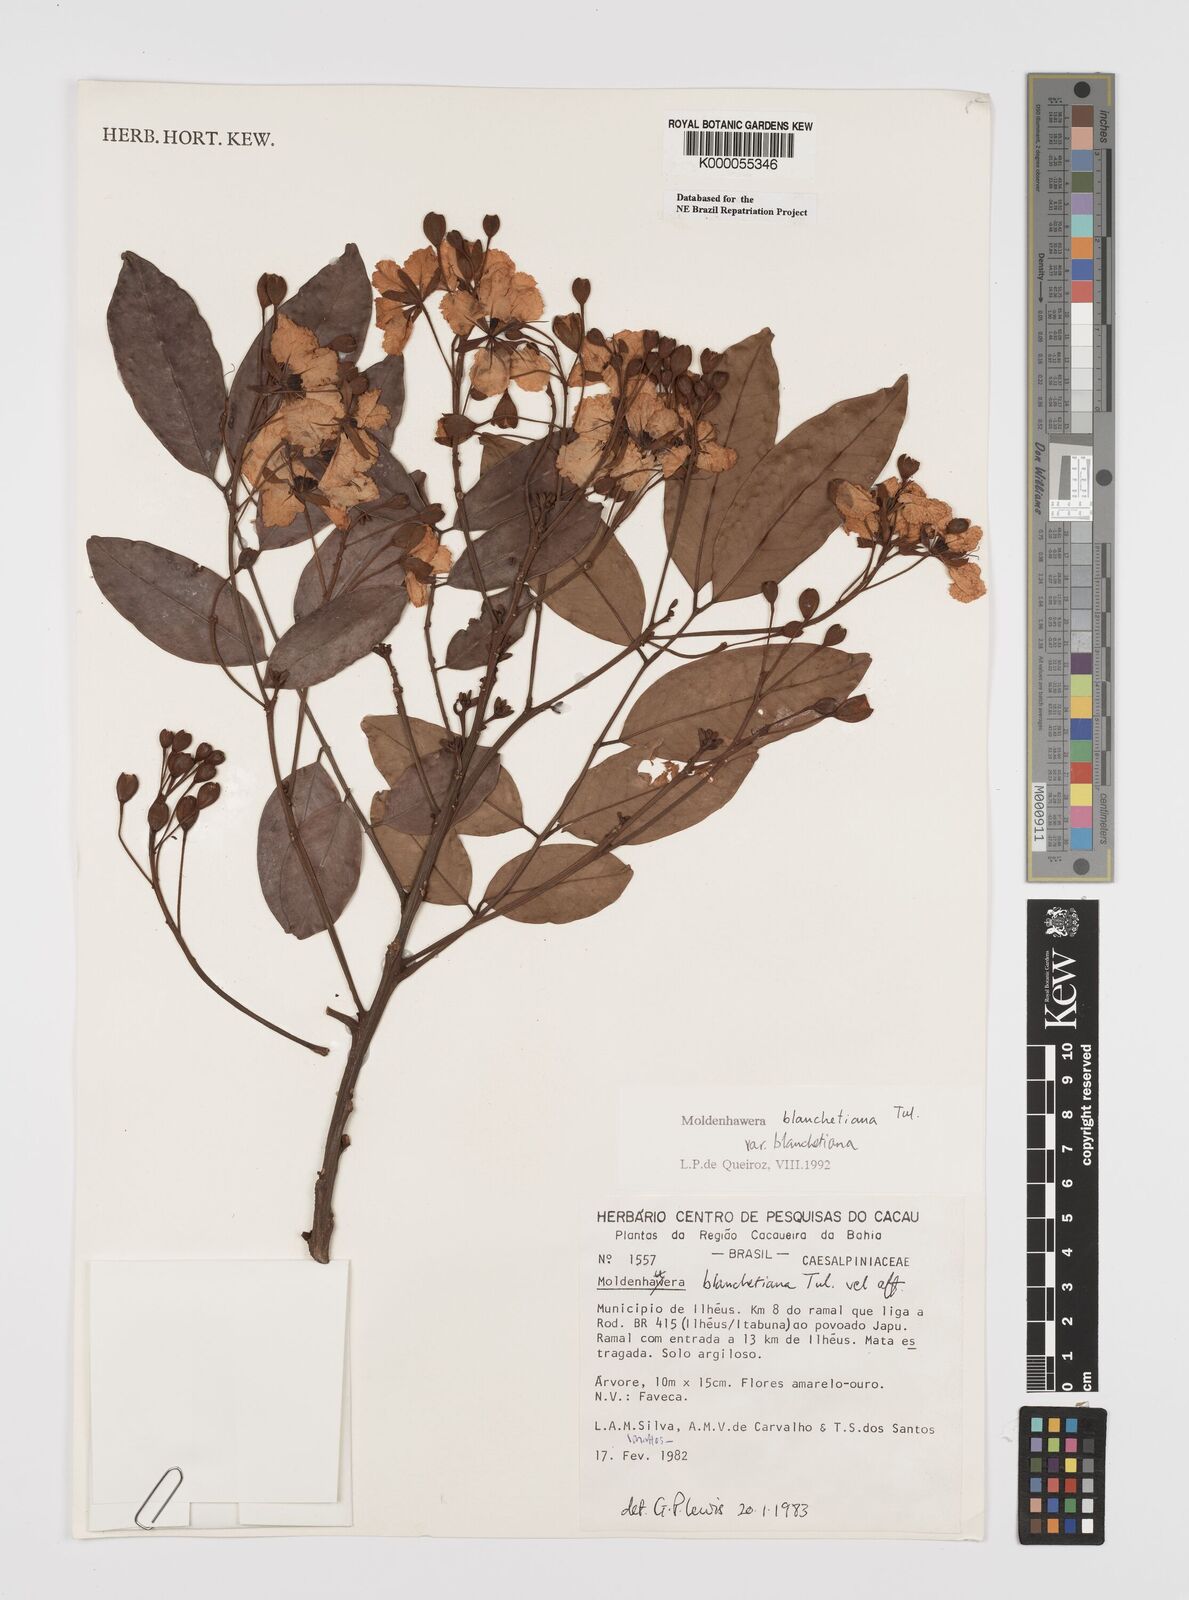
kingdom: Plantae
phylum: Tracheophyta
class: Magnoliopsida
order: Fabales
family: Fabaceae
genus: Moldenhawera
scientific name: Moldenhawera blanchetiana
